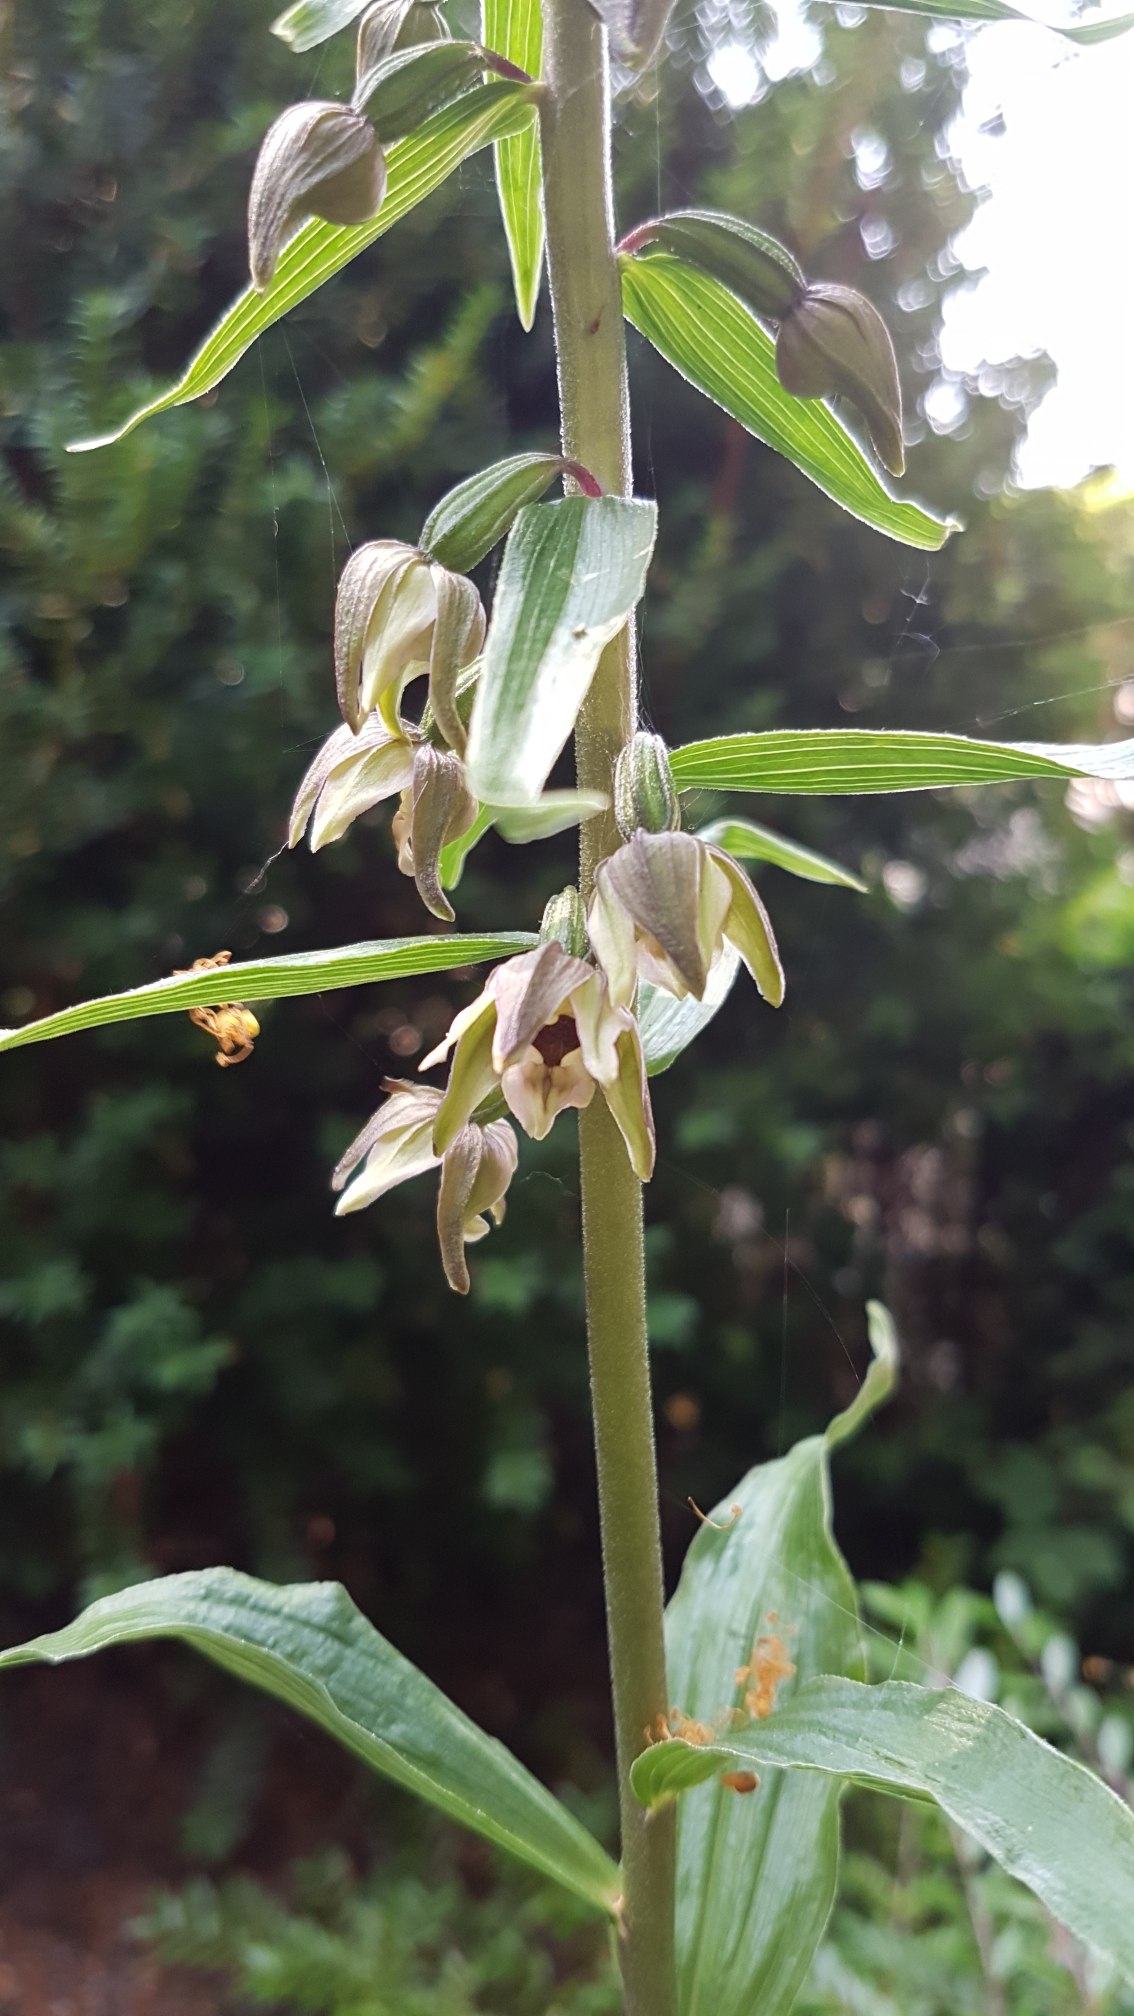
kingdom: Plantae
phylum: Tracheophyta
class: Liliopsida
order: Asparagales
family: Orchidaceae
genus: Epipactis
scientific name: Epipactis helleborine
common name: Skov-hullæbe
